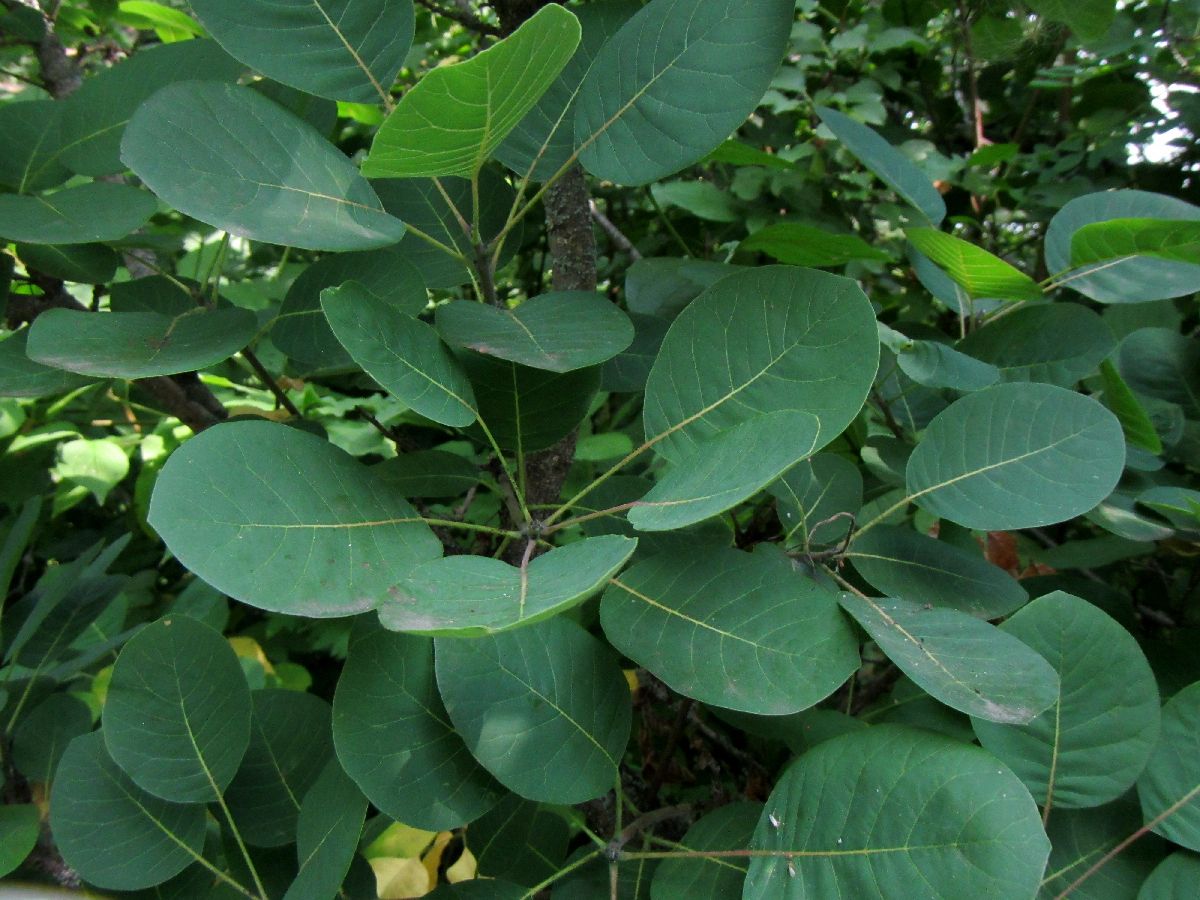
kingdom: Plantae
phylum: Tracheophyta
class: Magnoliopsida
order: Sapindales
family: Anacardiaceae
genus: Cotinus
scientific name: Cotinus coggygria
